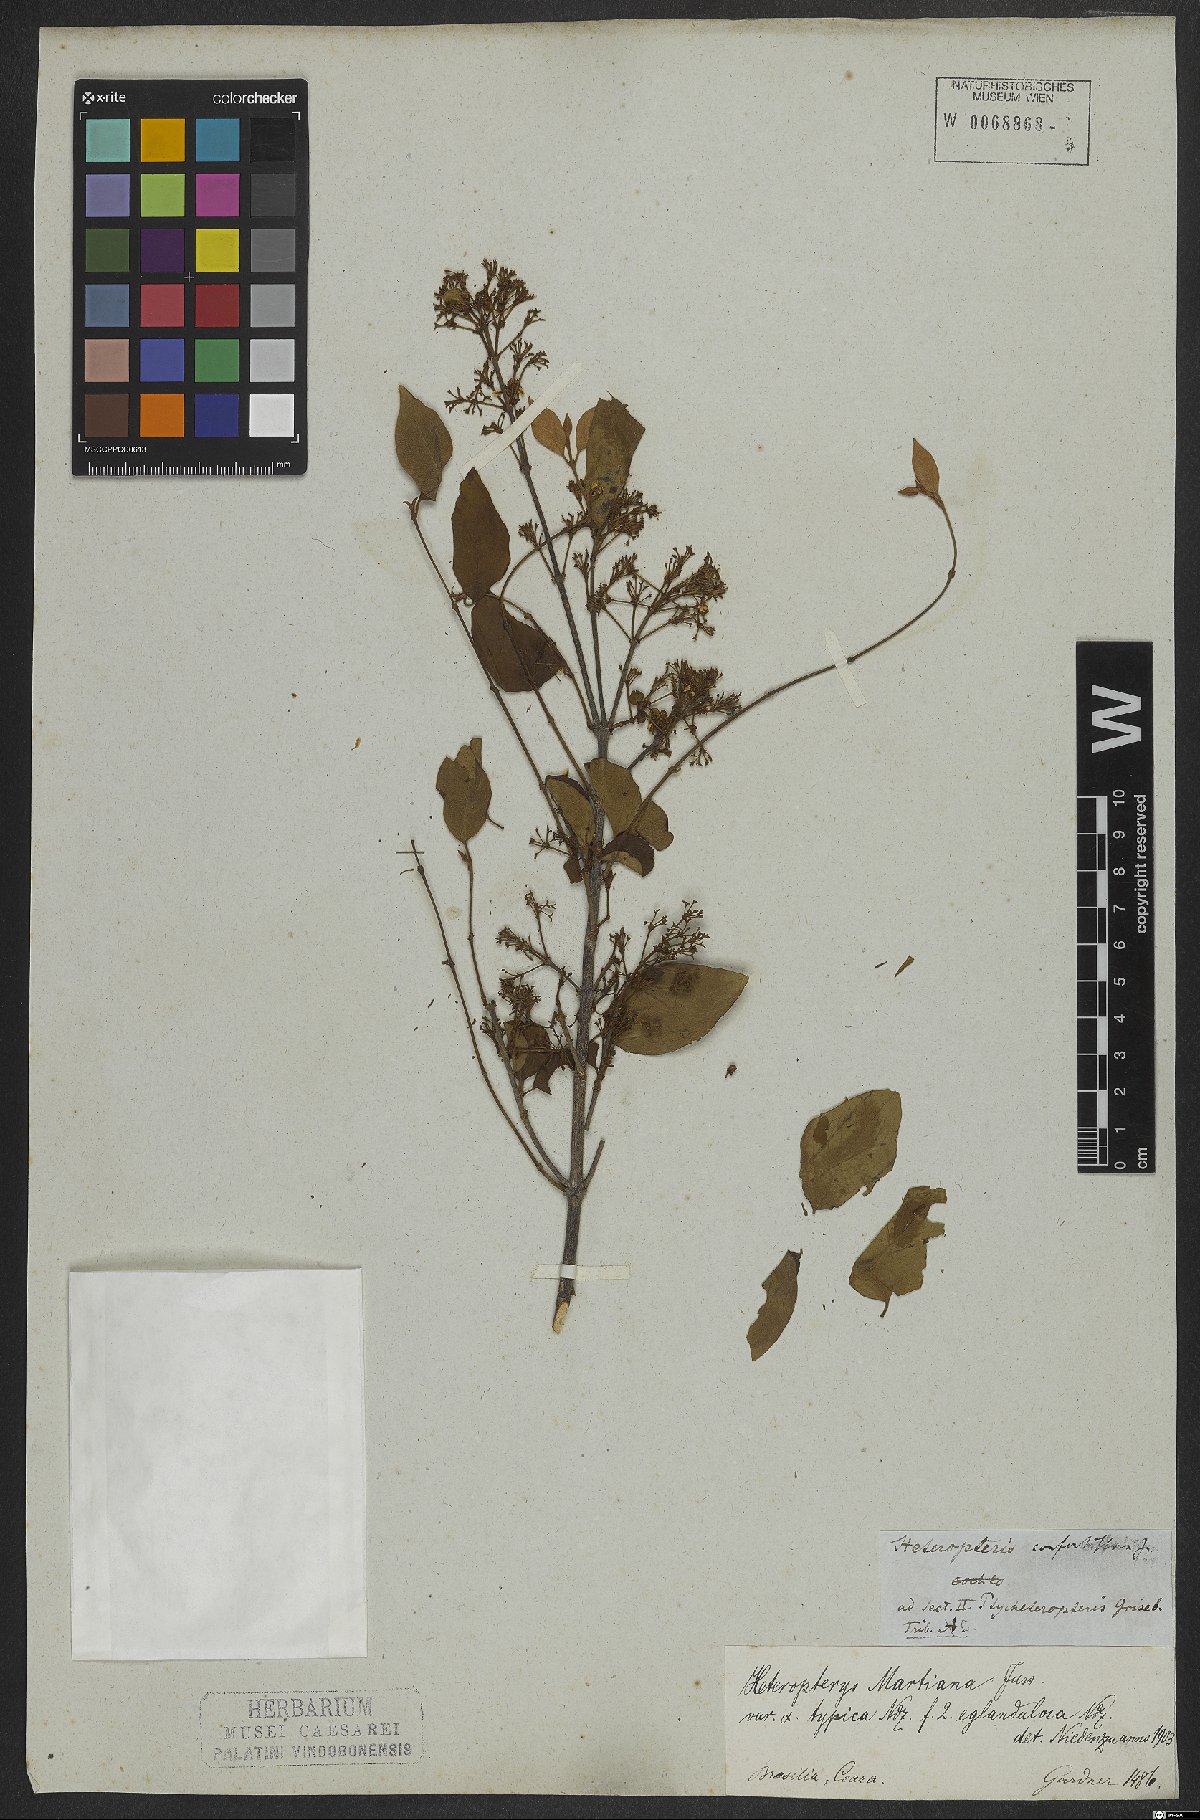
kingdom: Plantae
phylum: Tracheophyta
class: Magnoliopsida
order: Malpighiales
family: Malpighiaceae
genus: Heteropterys
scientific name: Heteropterys syringifolia
